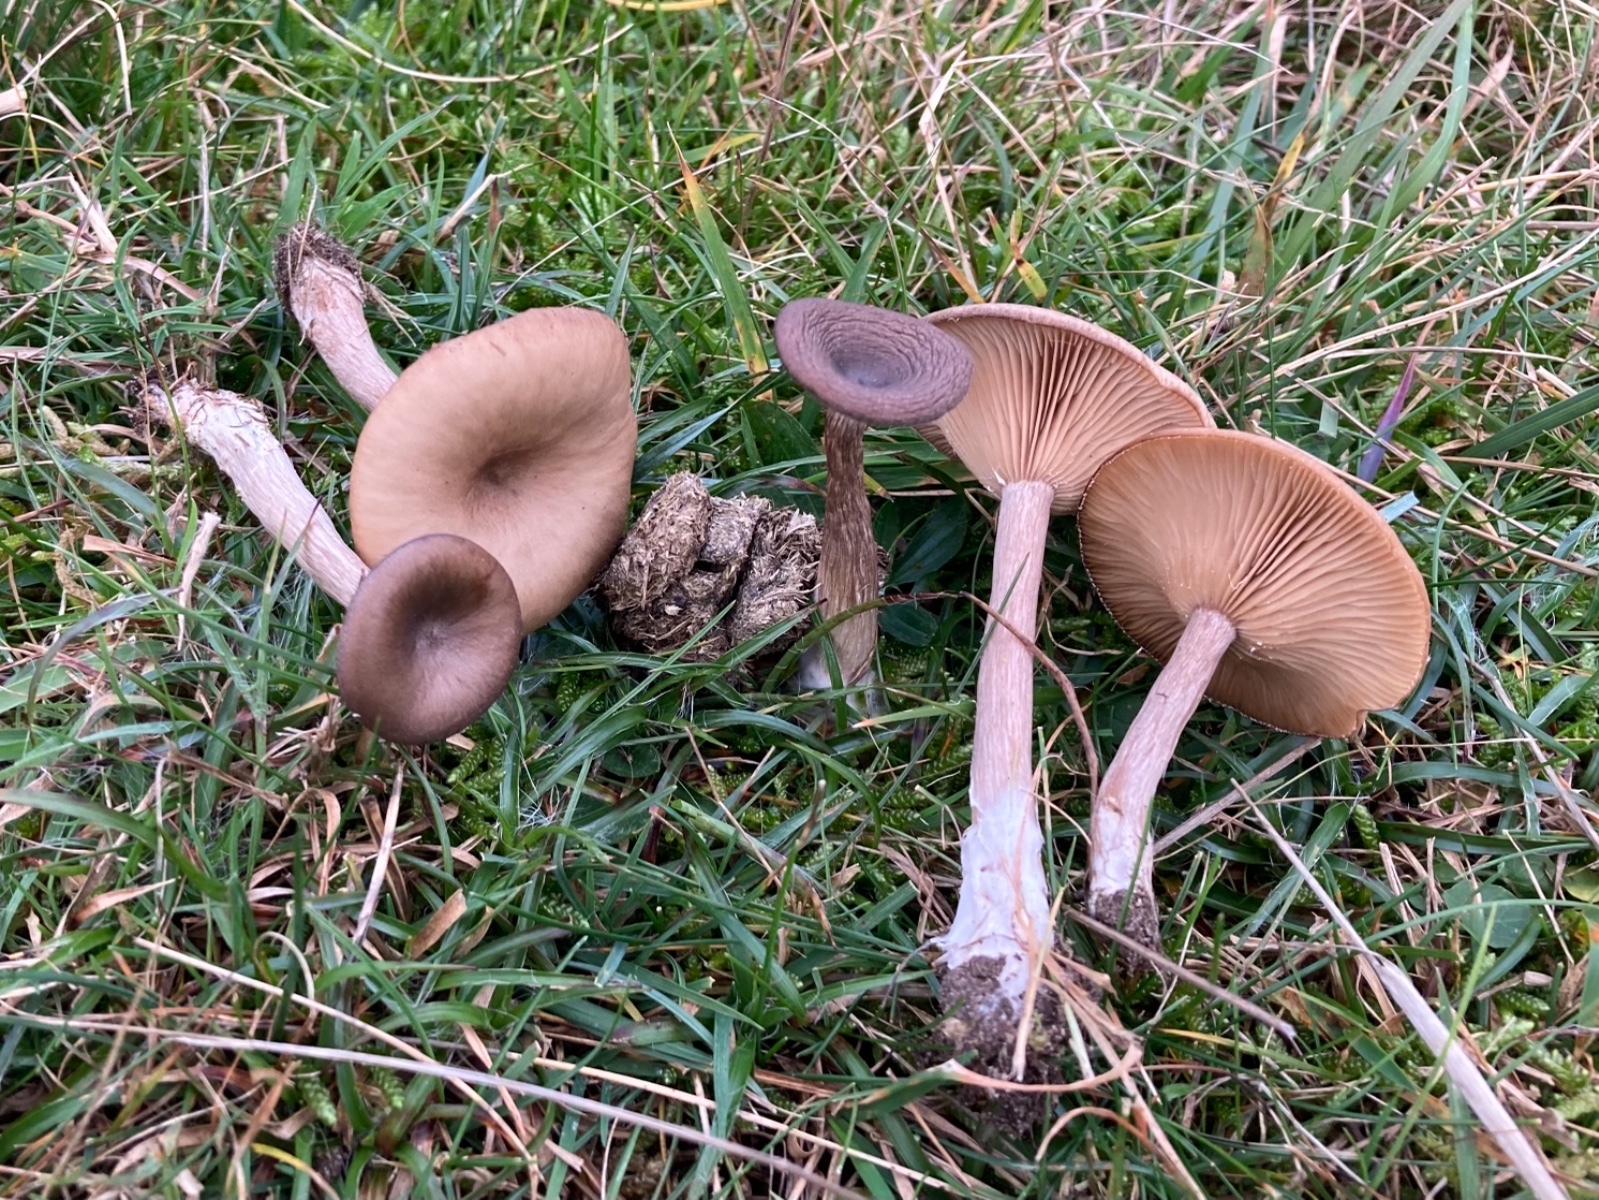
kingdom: Fungi
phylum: Basidiomycota
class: Agaricomycetes
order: Agaricales
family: Pseudoclitocybaceae
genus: Pseudoclitocybe
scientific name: Pseudoclitocybe expallens
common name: lille bægertragthat
